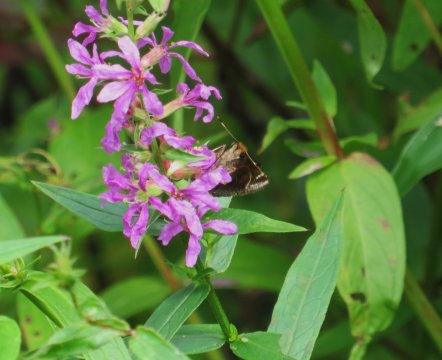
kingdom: Animalia
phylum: Arthropoda
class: Insecta
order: Lepidoptera
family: Hesperiidae
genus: Lon
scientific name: Lon zabulon
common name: Zabulon Skipper
